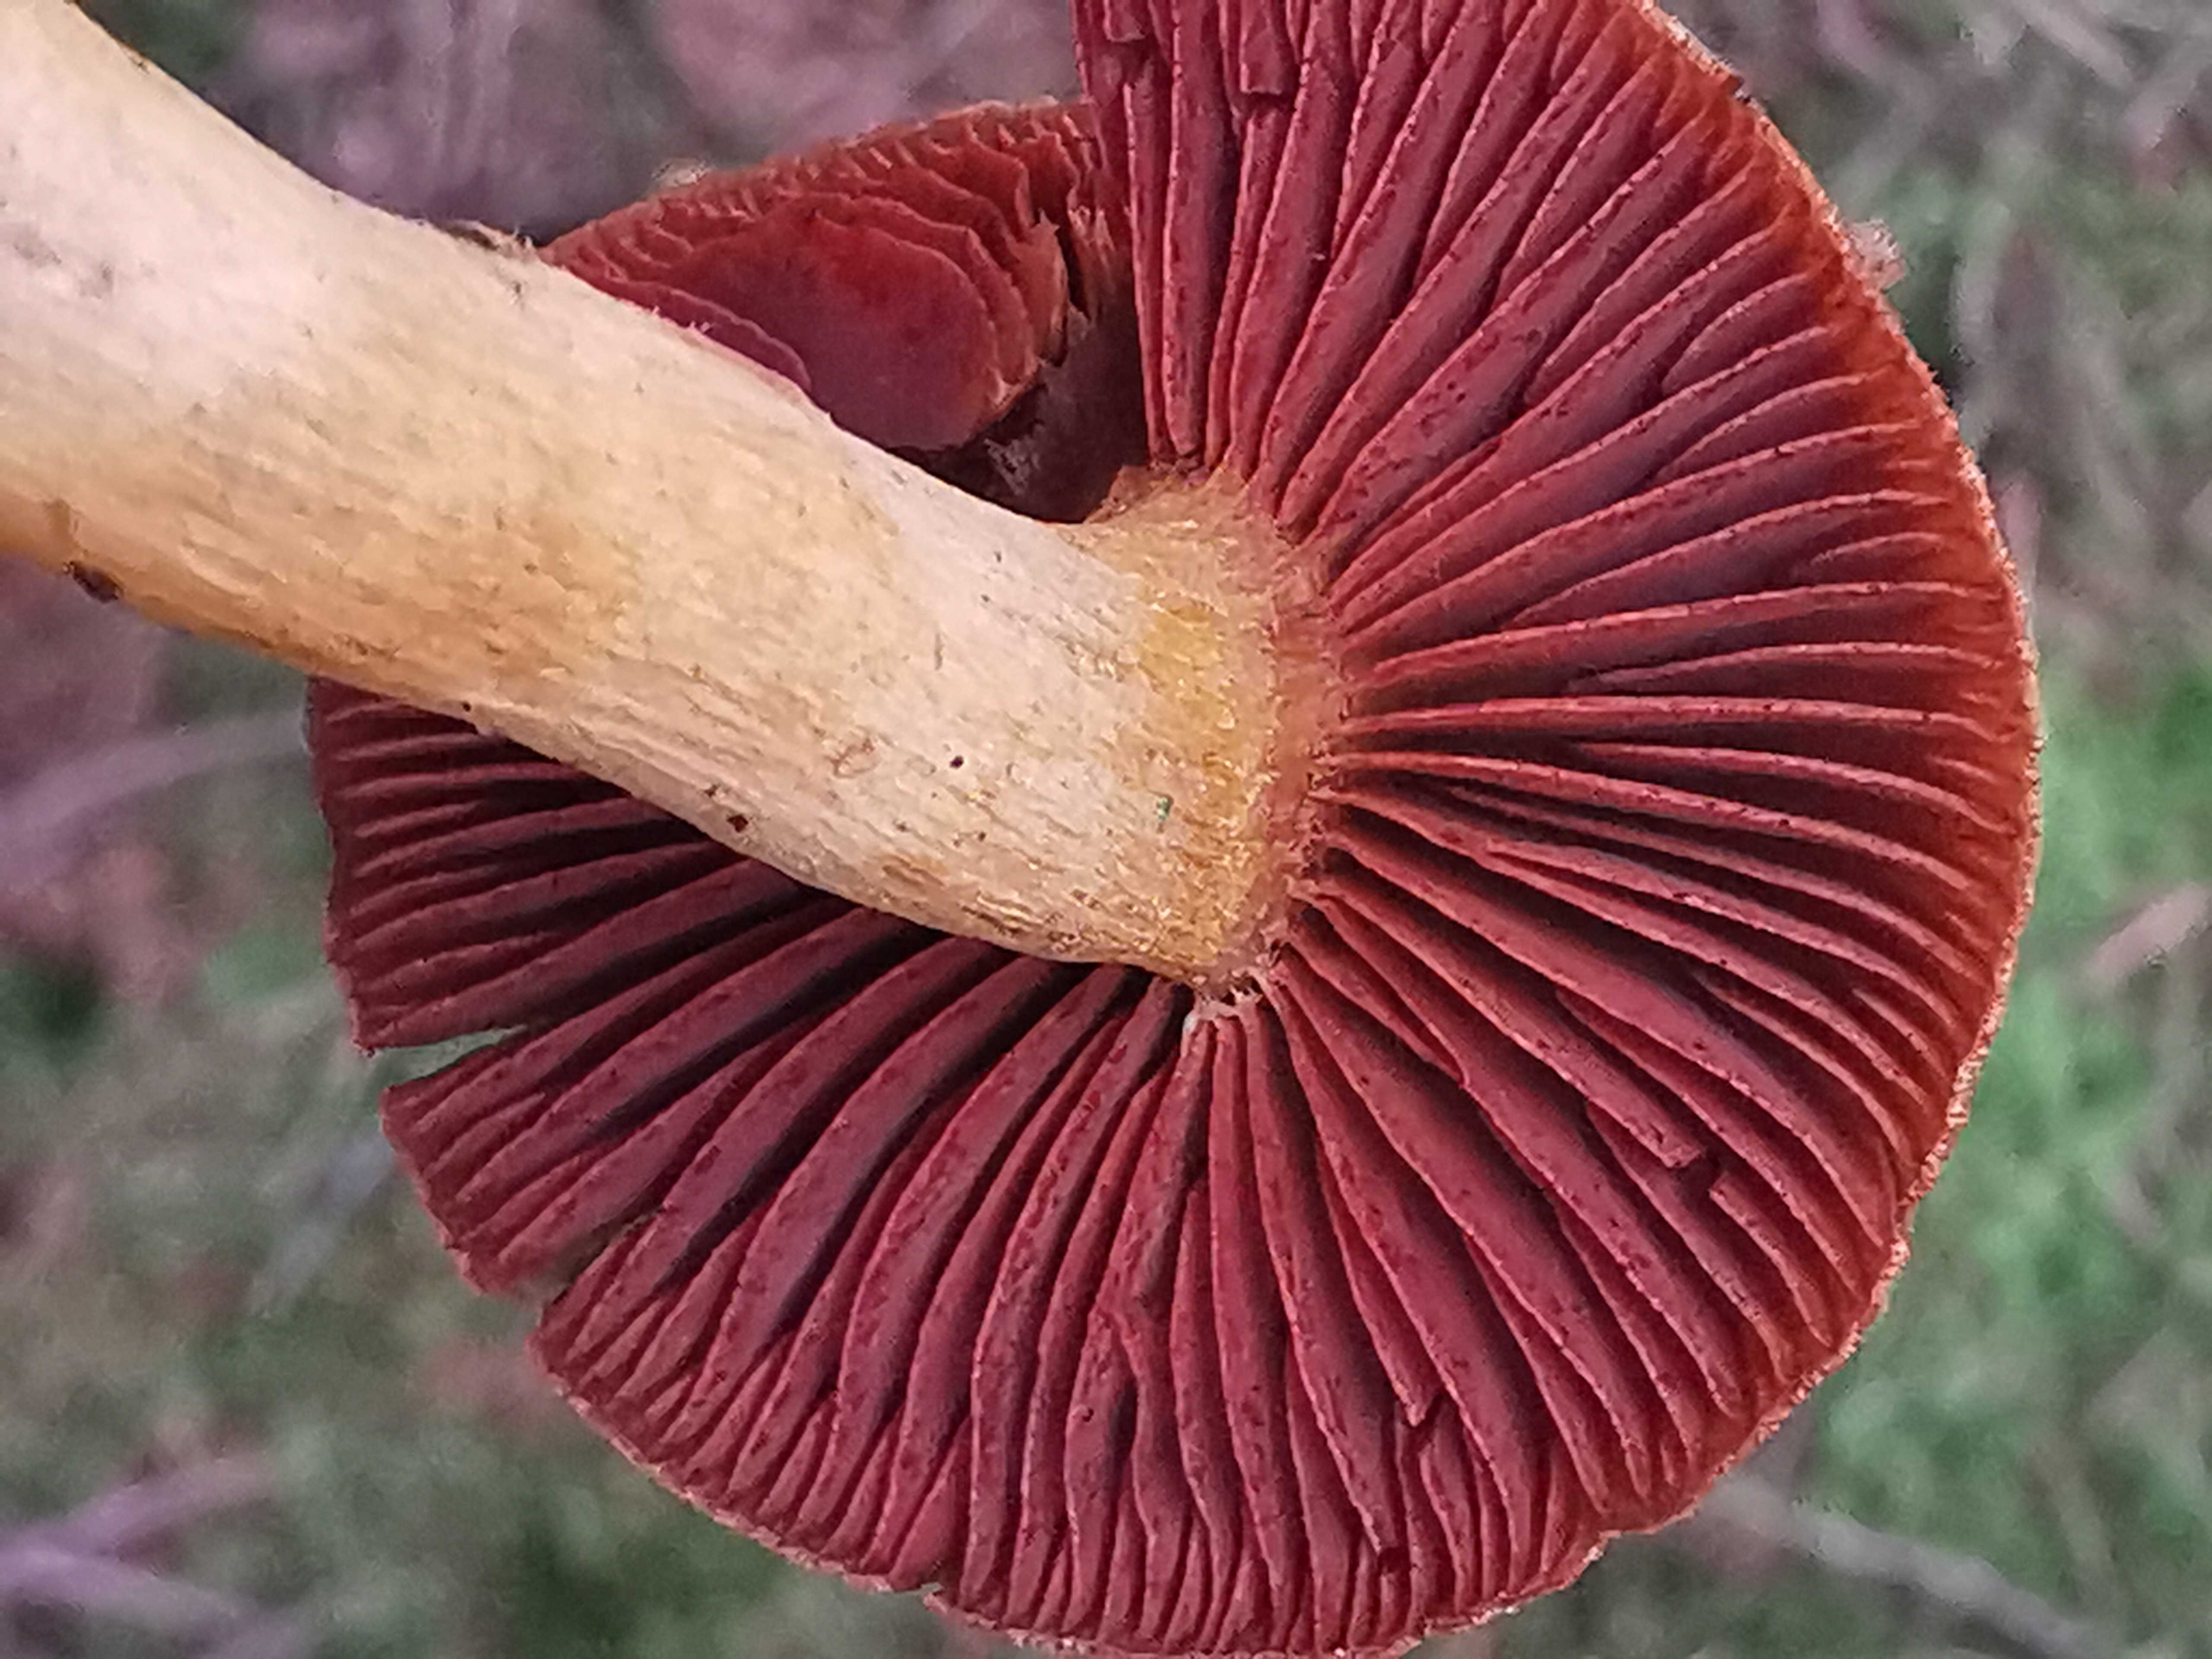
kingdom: Fungi
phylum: Basidiomycota
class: Agaricomycetes
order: Agaricales
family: Cortinariaceae
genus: Cortinarius
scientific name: Cortinarius
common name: cinnoberbladet slørhat
